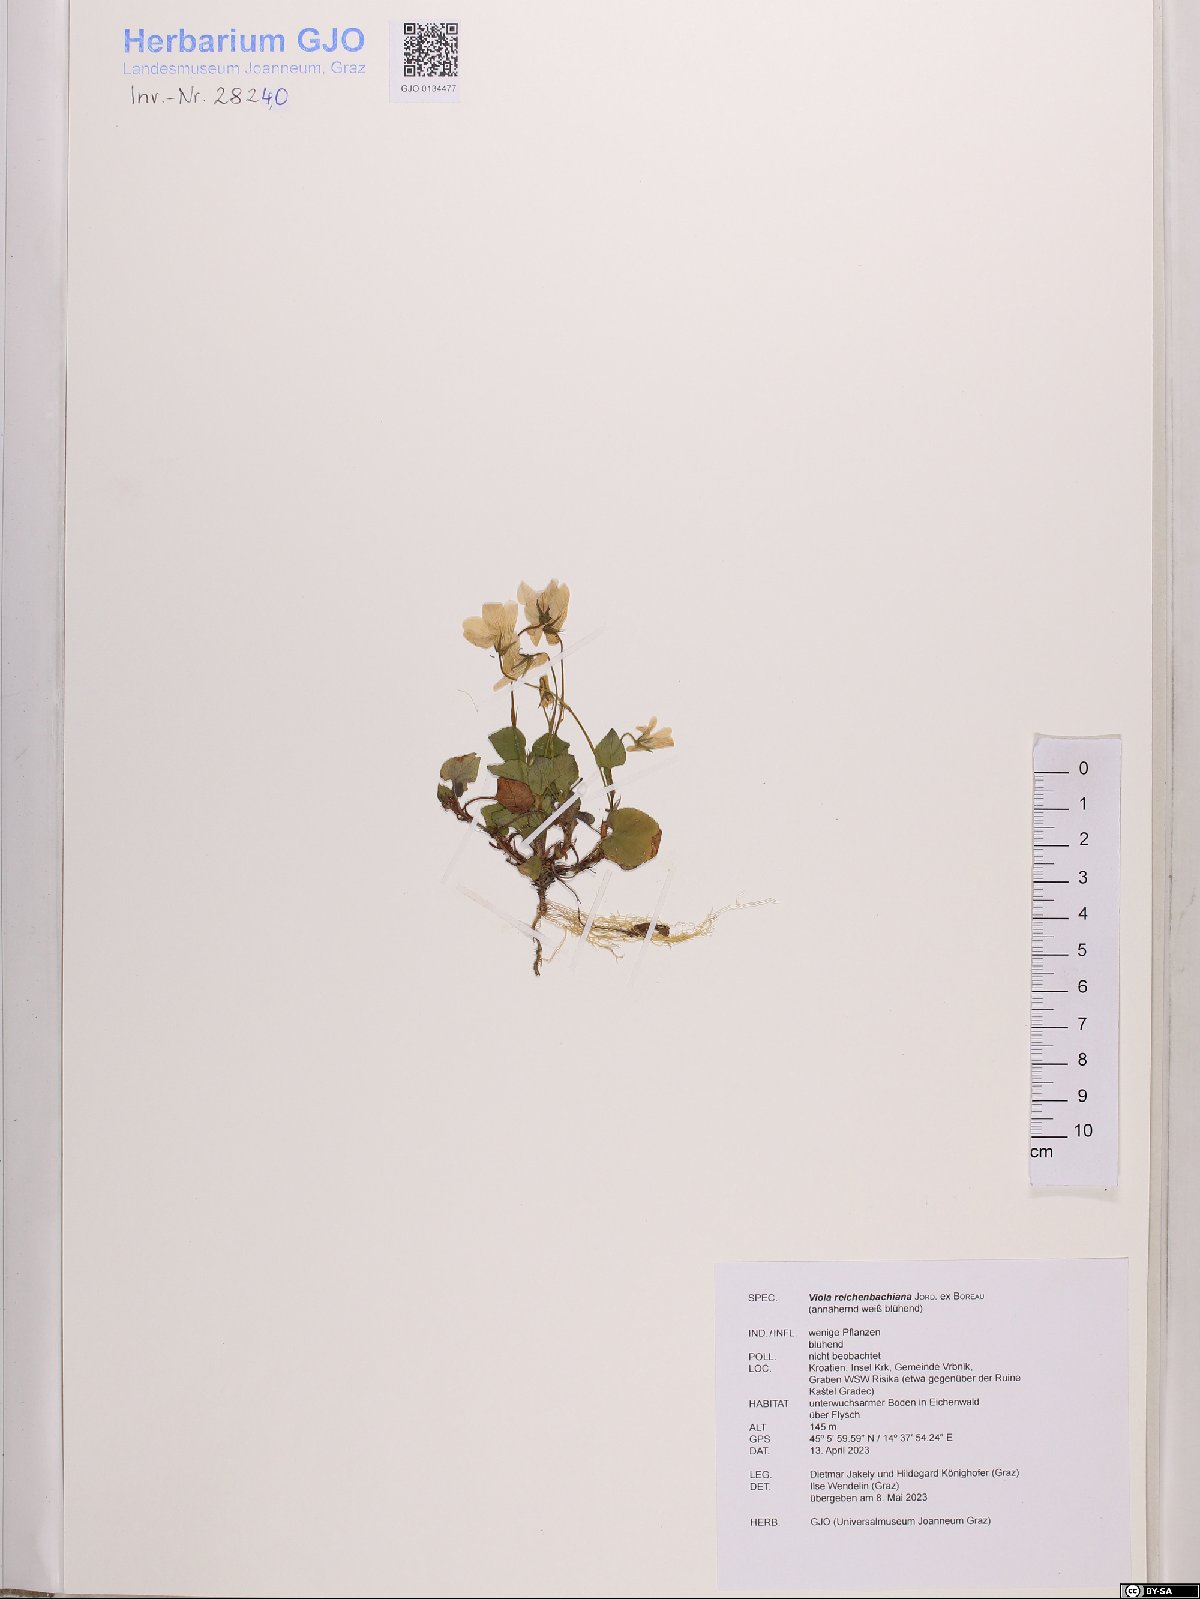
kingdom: Plantae
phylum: Tracheophyta
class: Magnoliopsida
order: Malpighiales
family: Violaceae
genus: Viola
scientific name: Viola reichenbachiana
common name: Early dog-violet
